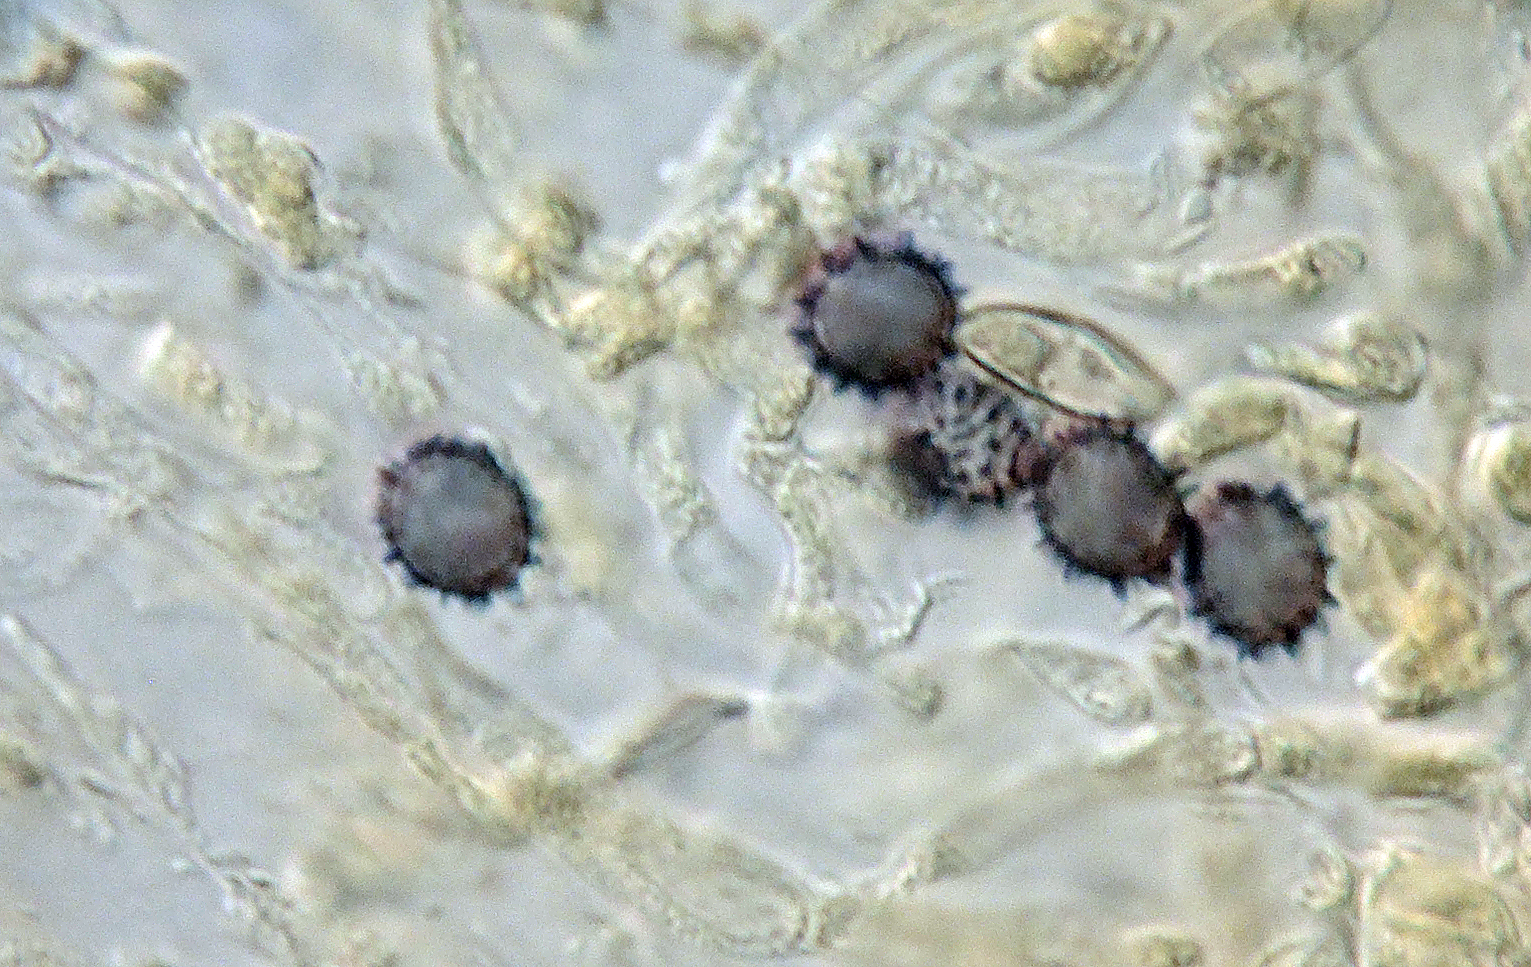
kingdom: Fungi
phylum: Basidiomycota
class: Agaricomycetes
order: Russulales
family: Russulaceae
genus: Russula
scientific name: Russula curtipes
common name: kortstokket skørhat
